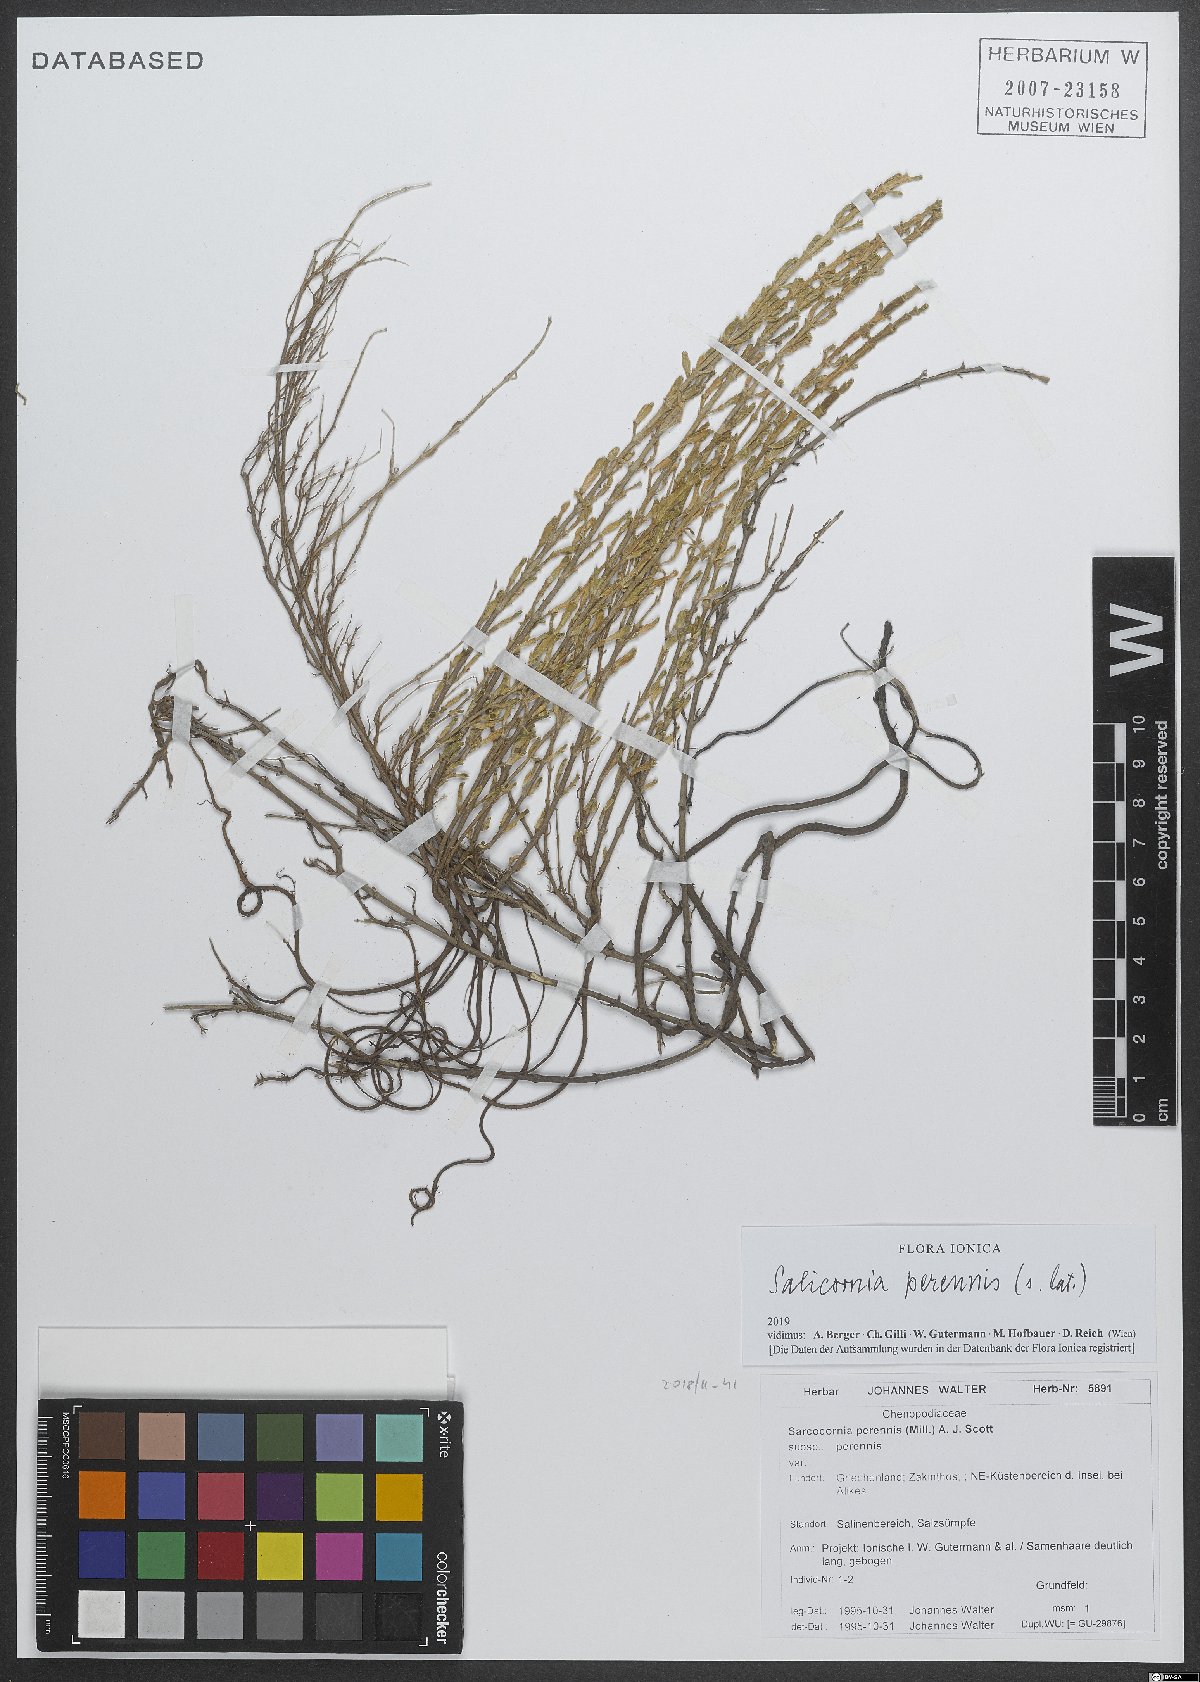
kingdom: Plantae
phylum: Tracheophyta
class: Magnoliopsida
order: Caryophyllales
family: Amaranthaceae
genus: Salicornia
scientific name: Salicornia perennis
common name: Chicken claws
